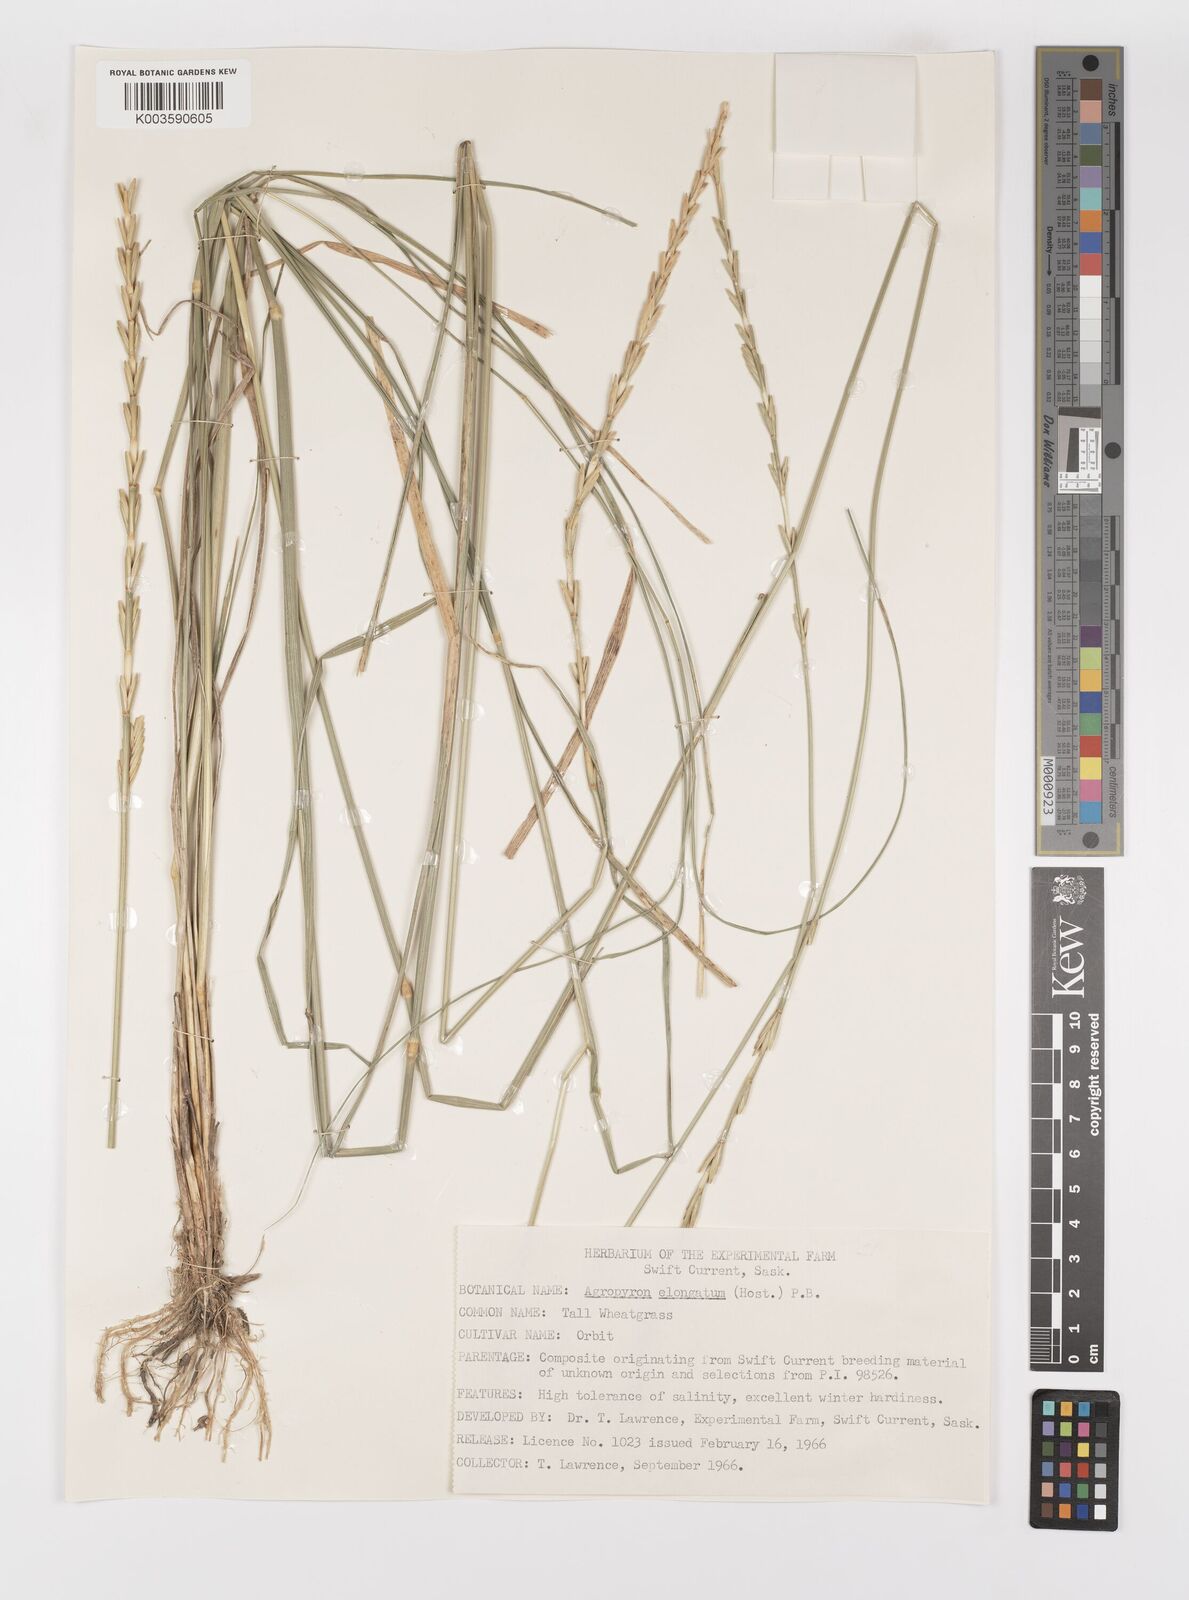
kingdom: Plantae
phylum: Tracheophyta
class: Liliopsida
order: Poales
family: Poaceae
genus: Thinopyrum
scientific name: Thinopyrum elongatum
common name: Tall wheatgrass
